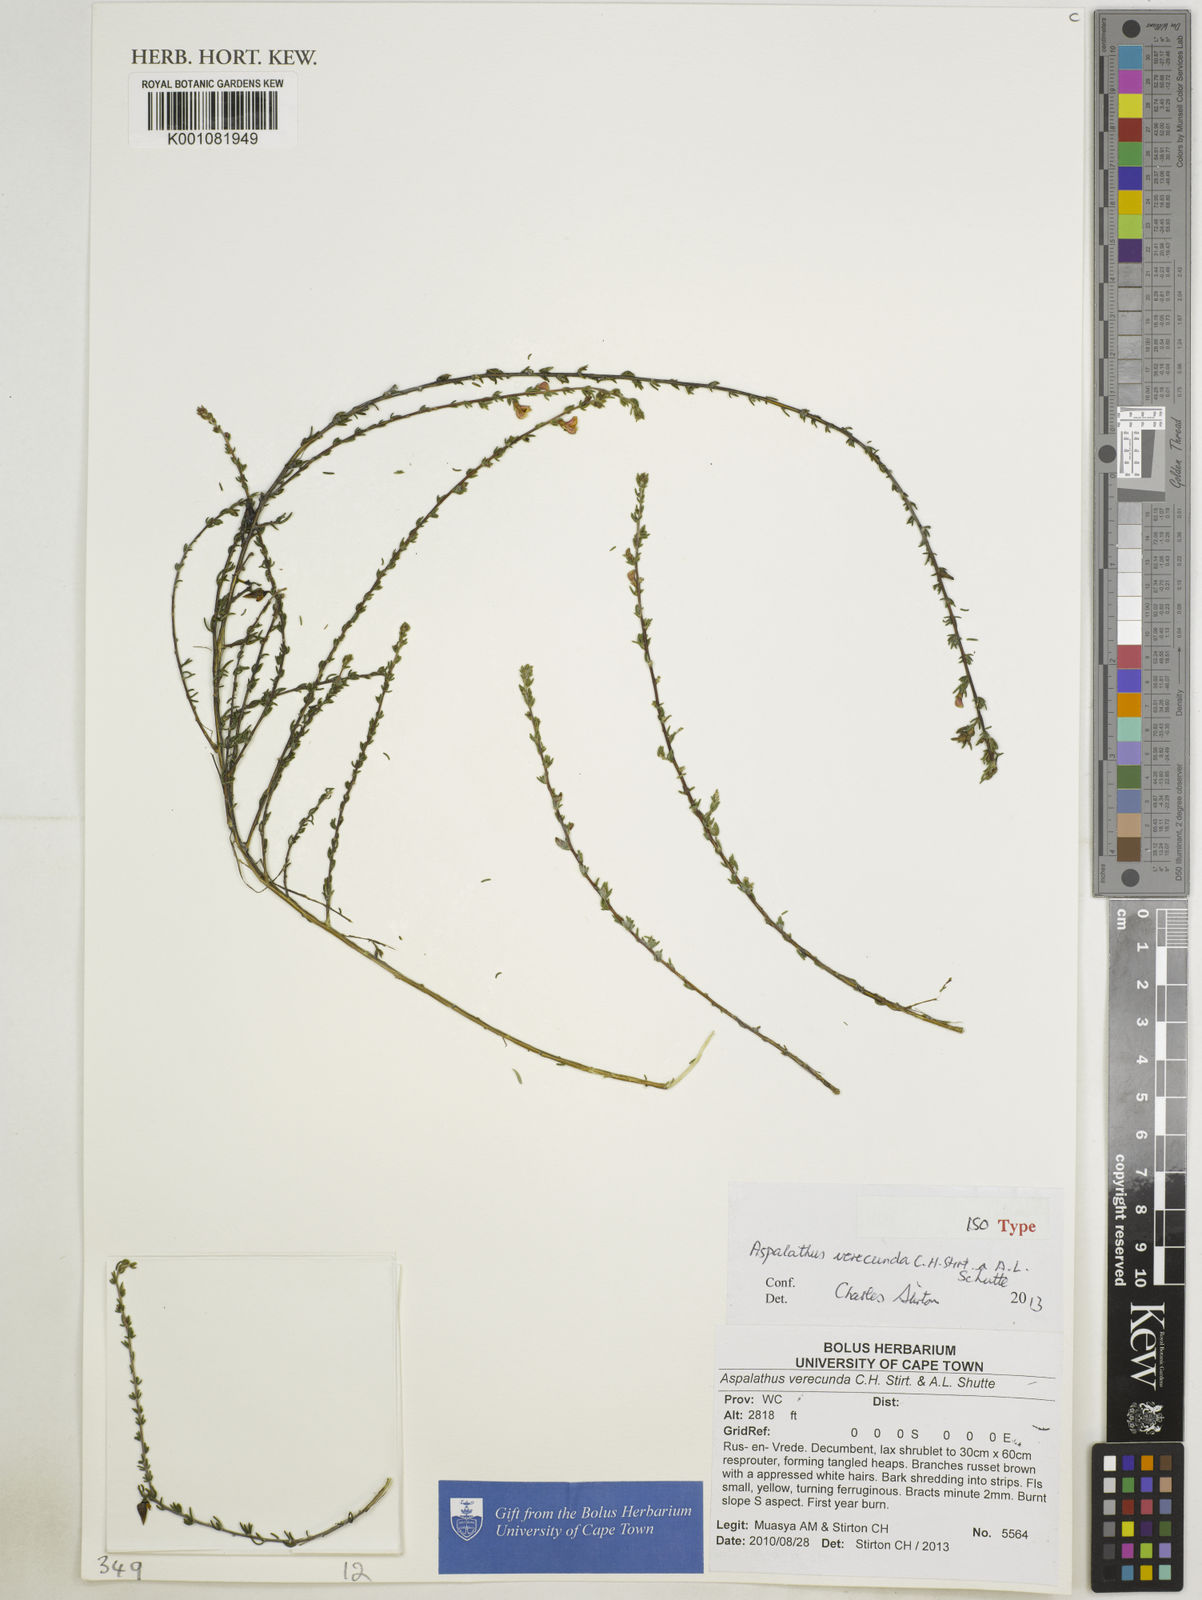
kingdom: Plantae
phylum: Tracheophyta
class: Magnoliopsida
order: Fabales
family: Fabaceae
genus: Aspalathus
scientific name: Aspalathus
